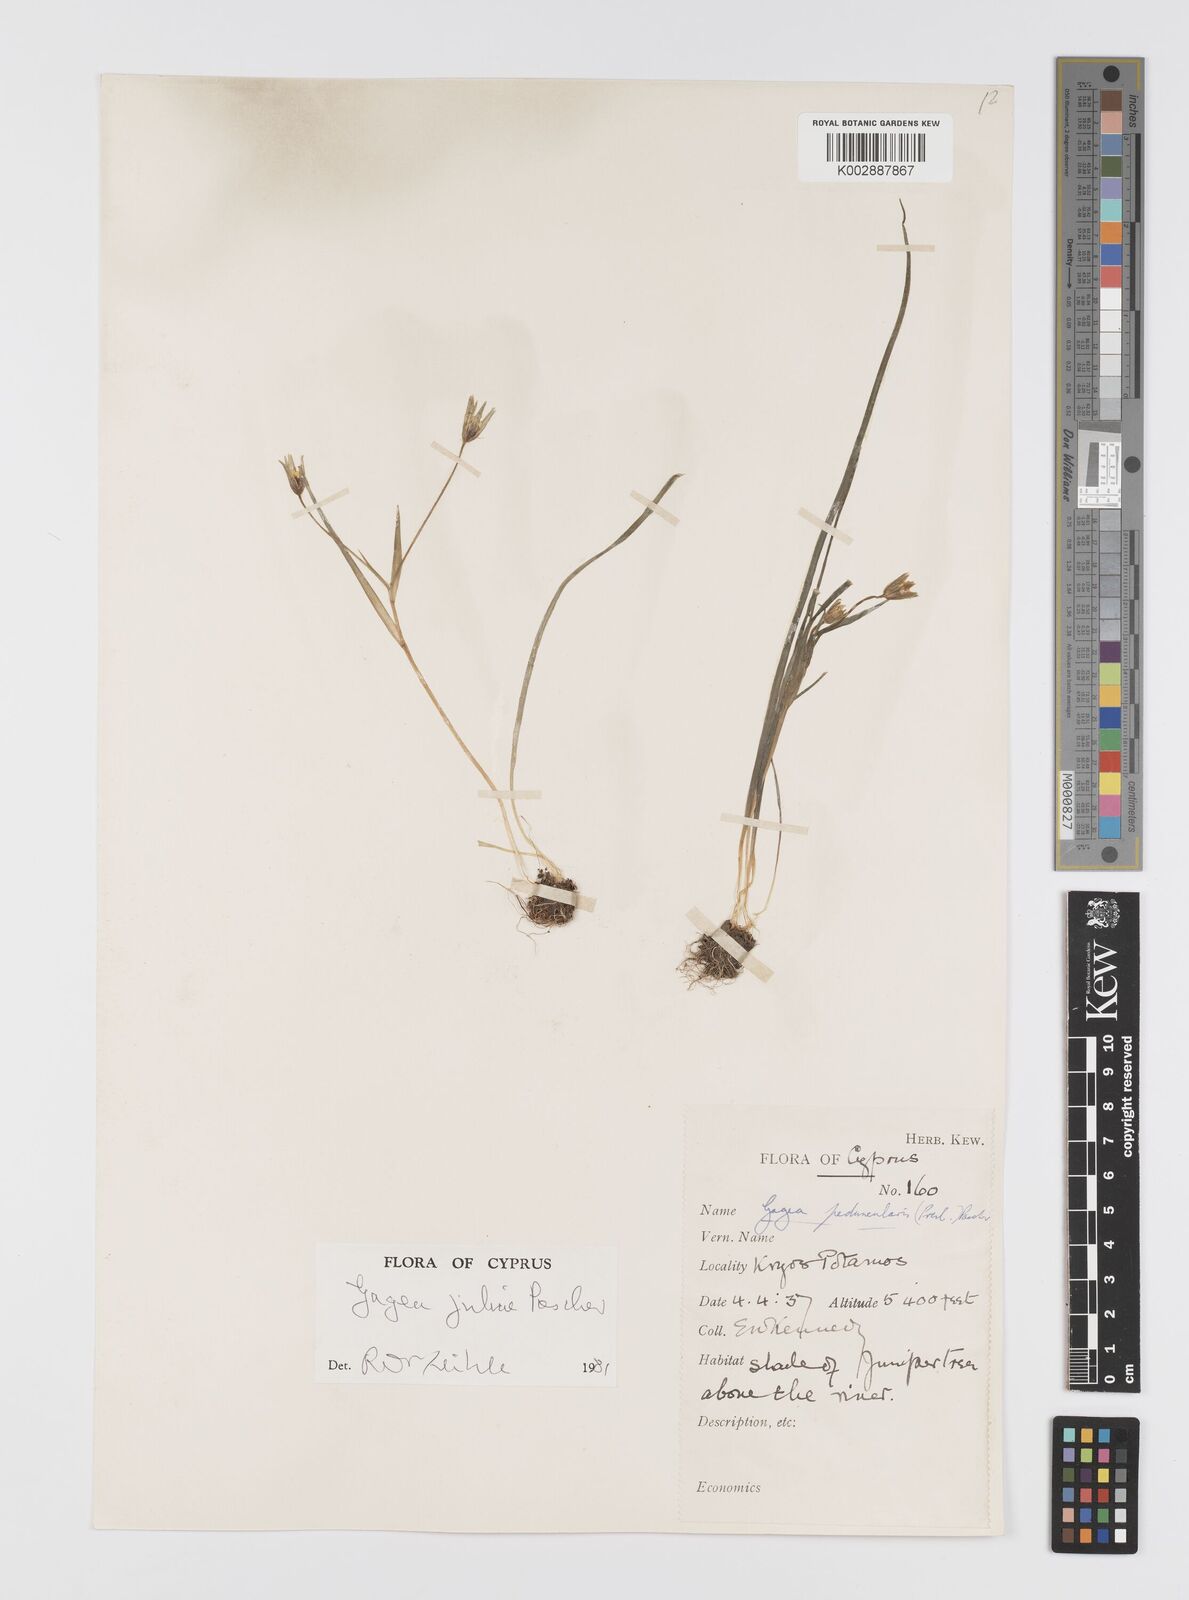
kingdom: Plantae
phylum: Tracheophyta
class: Liliopsida
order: Liliales
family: Liliaceae
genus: Gagea
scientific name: Gagea juliae
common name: Julia’s gagea
